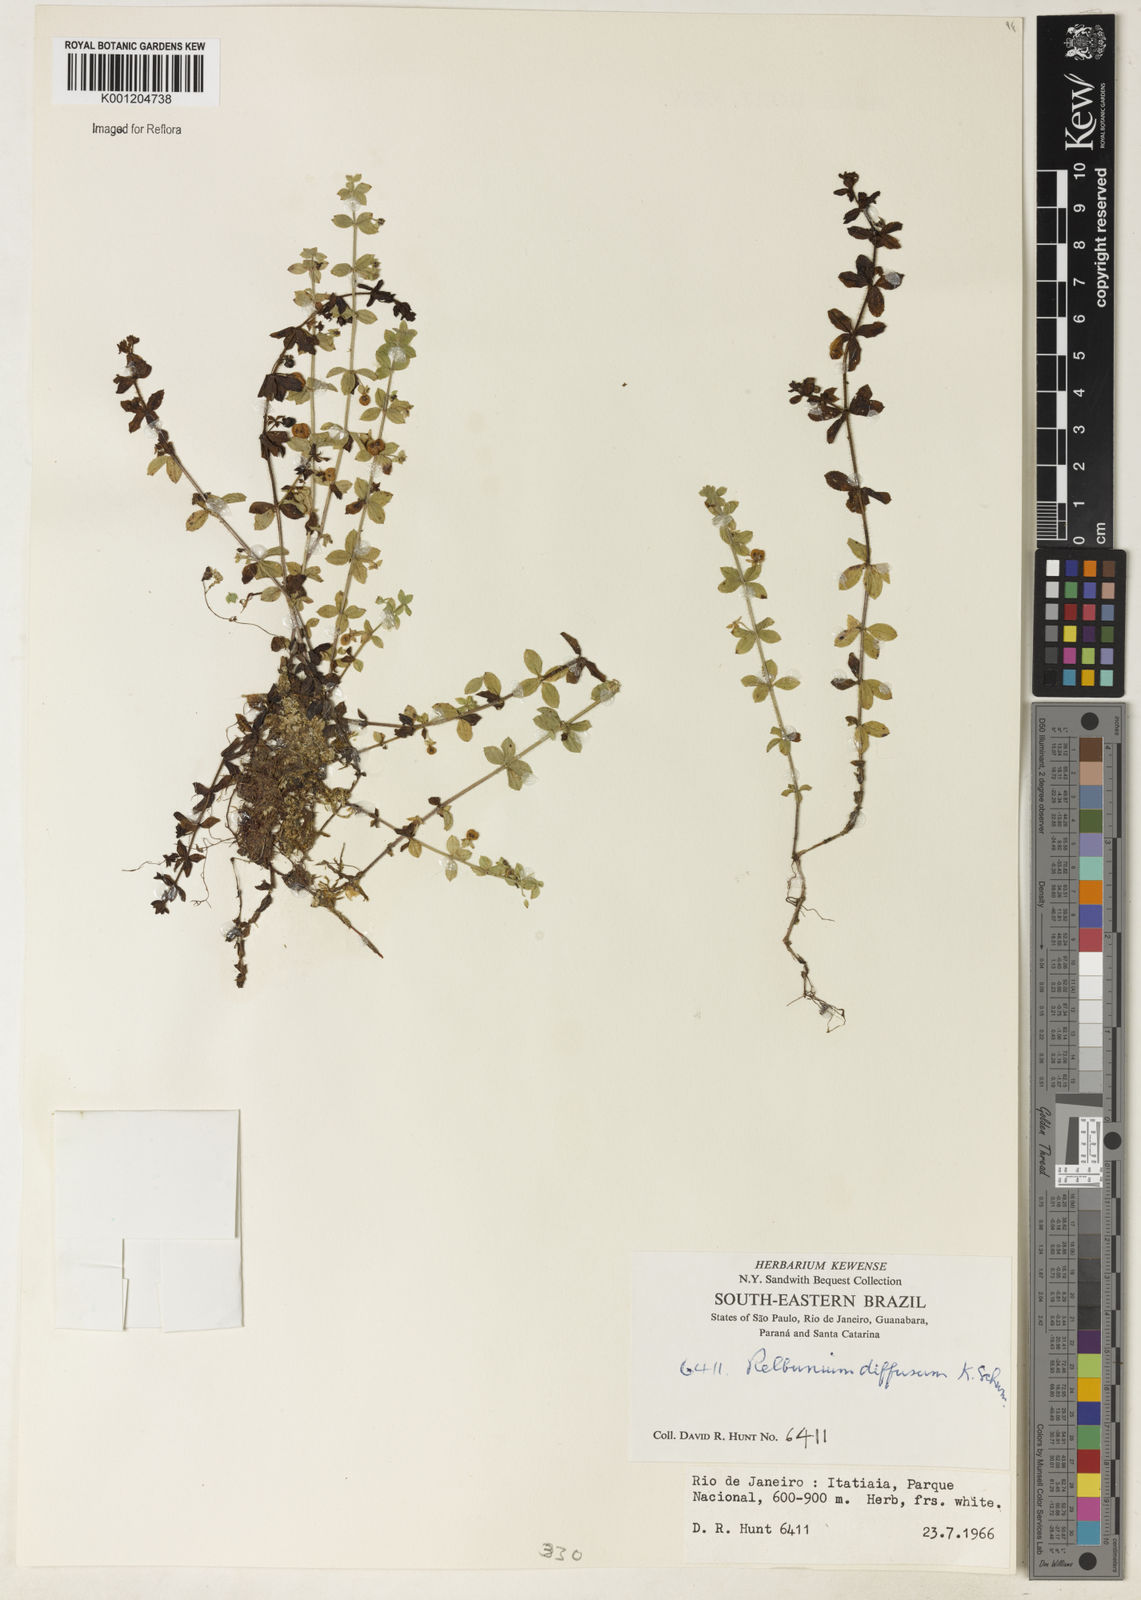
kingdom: Plantae
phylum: Tracheophyta
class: Magnoliopsida
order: Gentianales
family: Rubiaceae
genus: Galium
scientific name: Galium noxium
